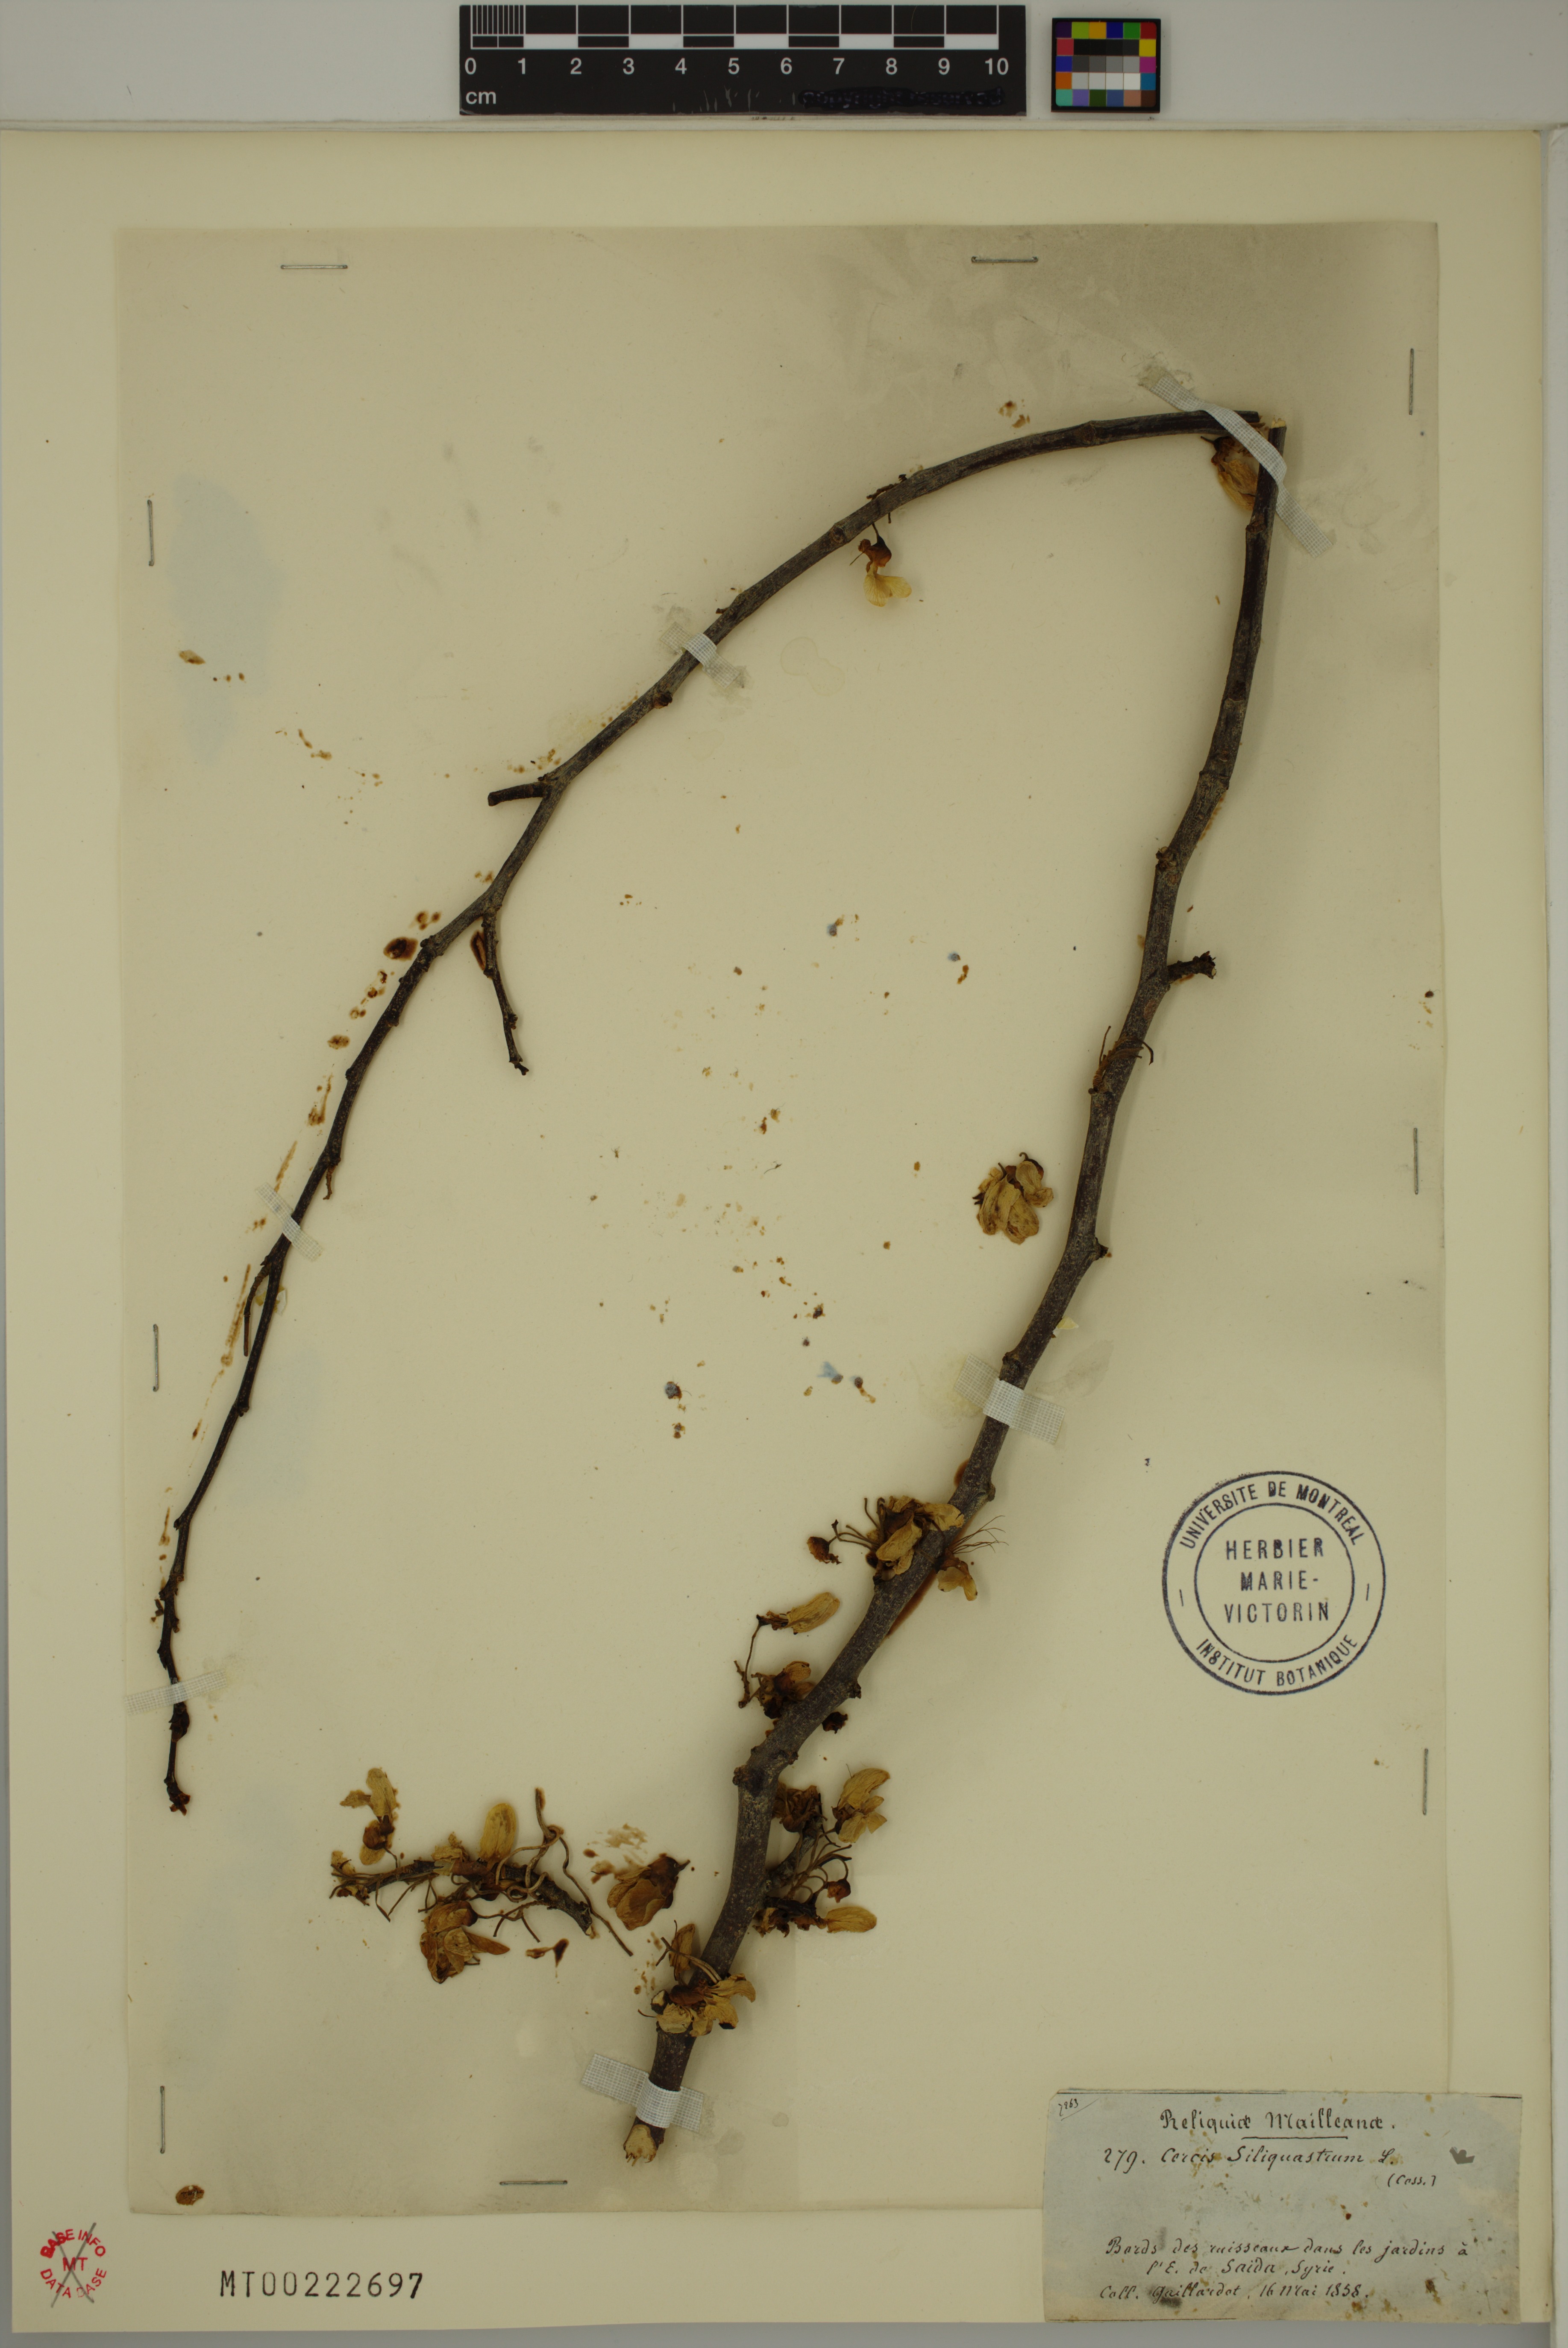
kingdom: Plantae
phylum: Tracheophyta
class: Magnoliopsida
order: Fabales
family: Fabaceae
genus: Cercis
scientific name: Cercis siliquastrum
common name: Judas tree
